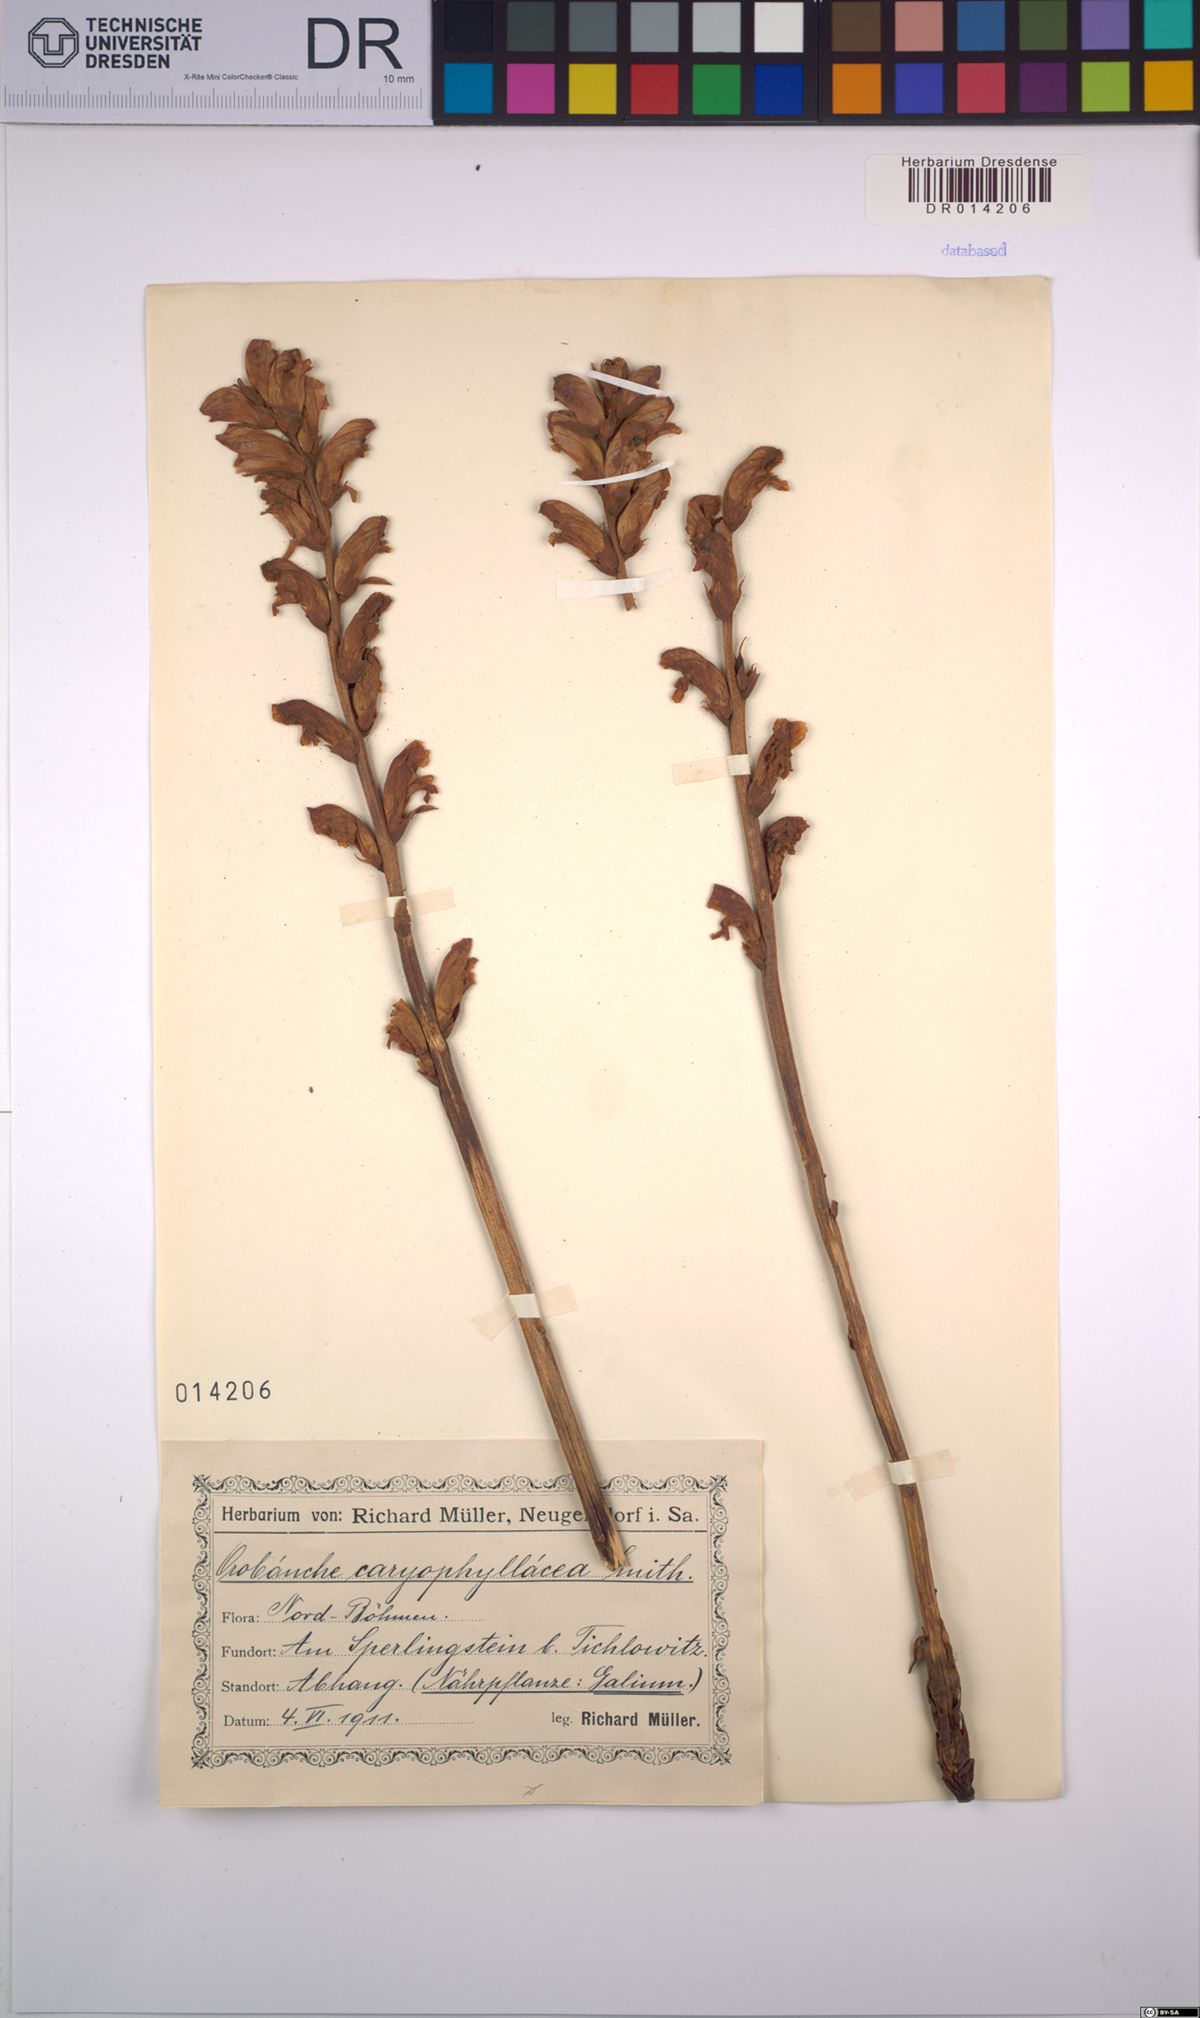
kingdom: Plantae
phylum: Tracheophyta
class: Magnoliopsida
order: Lamiales
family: Orobanchaceae
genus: Orobanche
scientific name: Orobanche caryophyllacea
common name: Bedstraw broomrape
